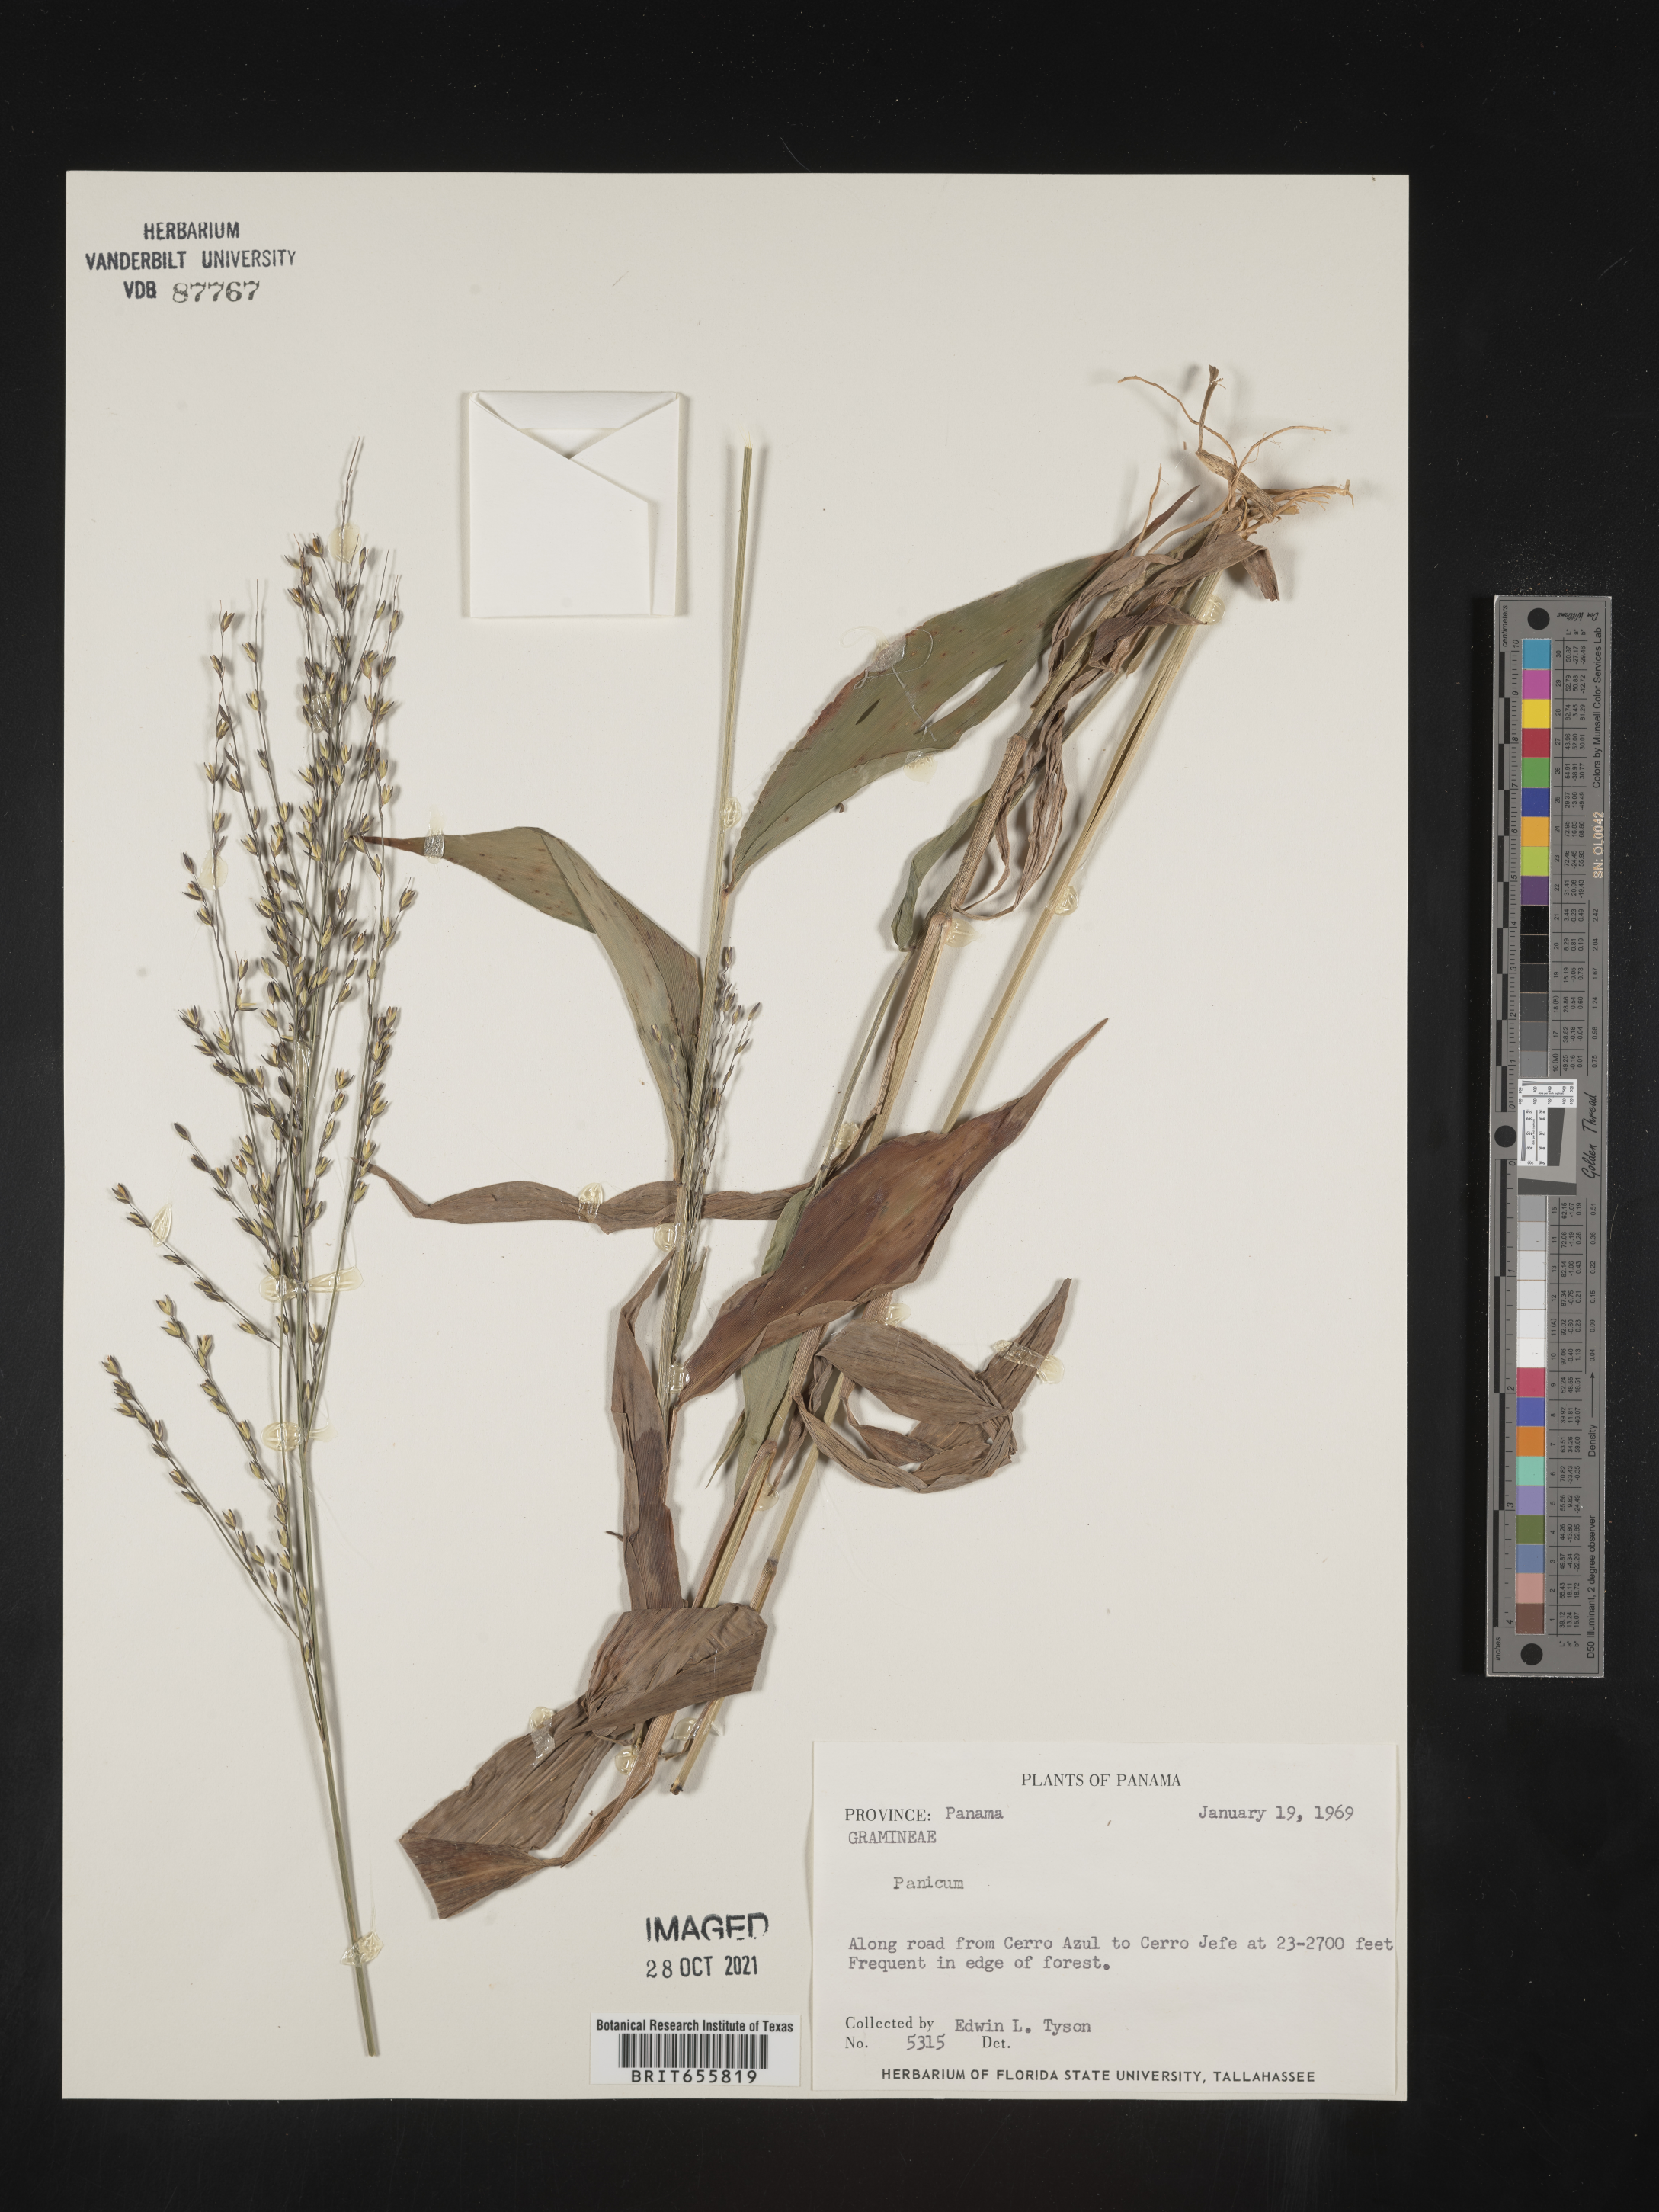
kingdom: Plantae
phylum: Tracheophyta
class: Liliopsida
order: Poales
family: Poaceae
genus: Panicum
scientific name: Panicum
